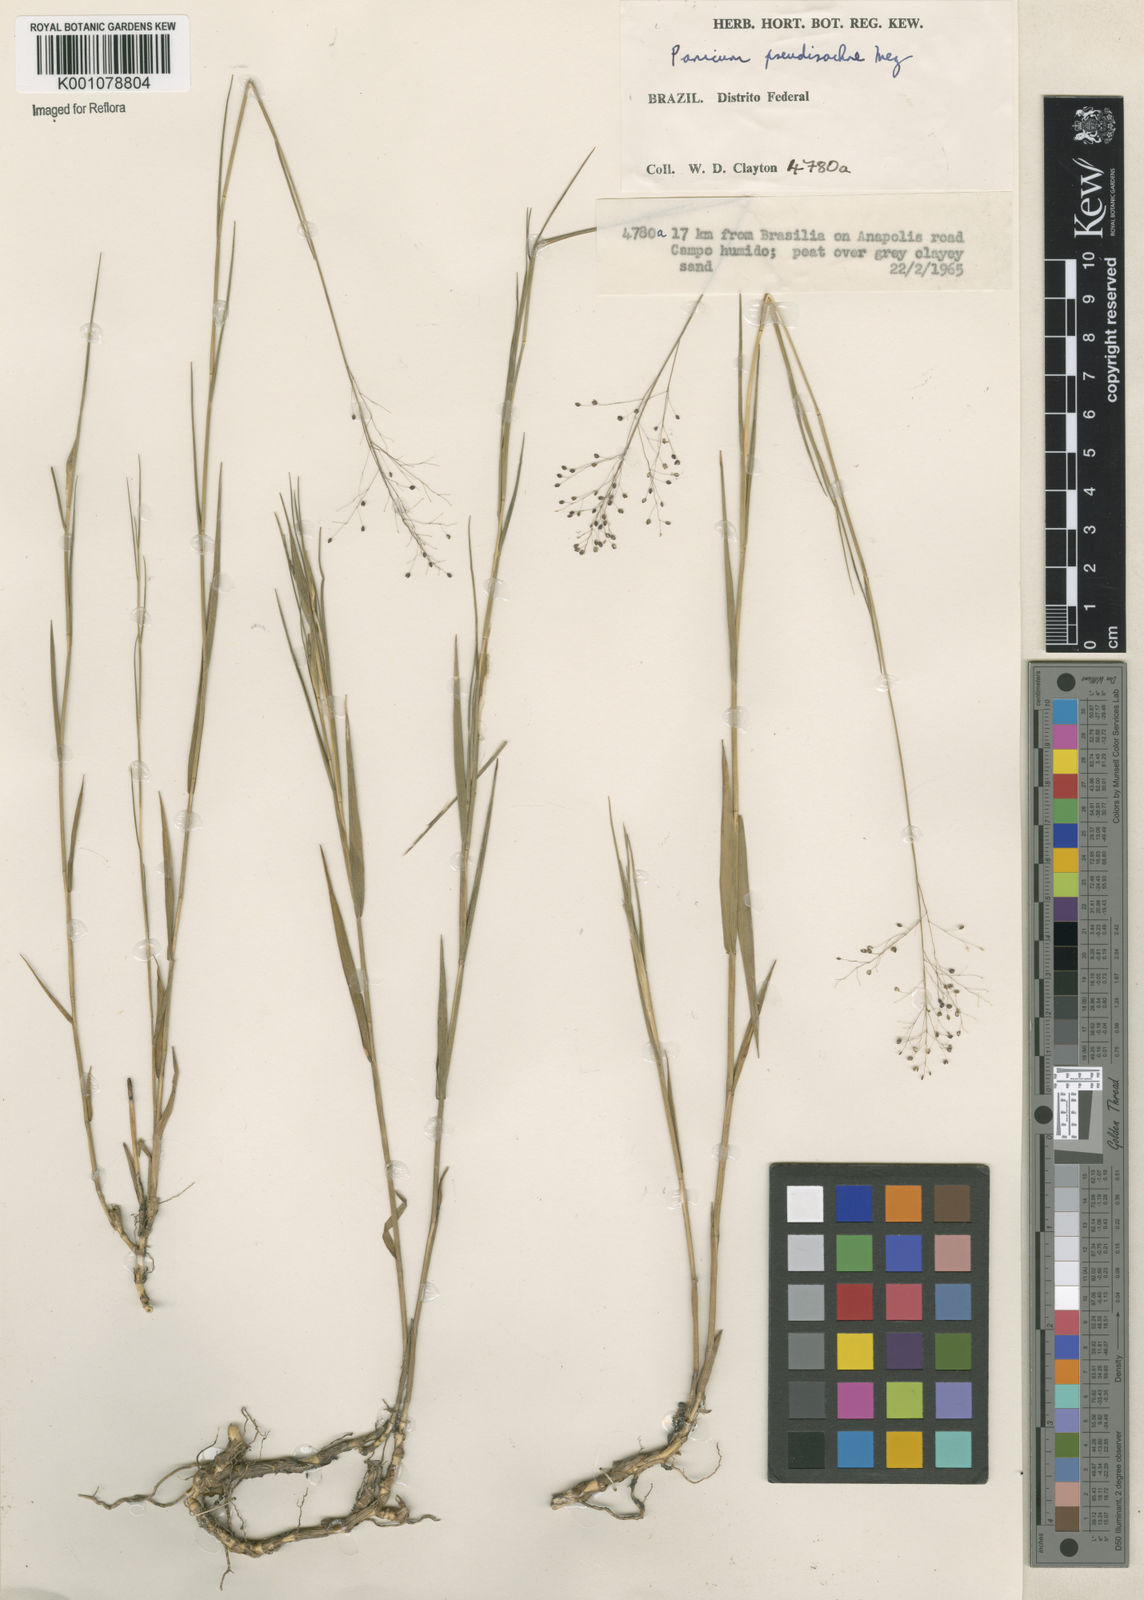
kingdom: Plantae
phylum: Tracheophyta
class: Liliopsida
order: Poales
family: Poaceae
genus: Trichanthecium
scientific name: Trichanthecium pseudisachne
